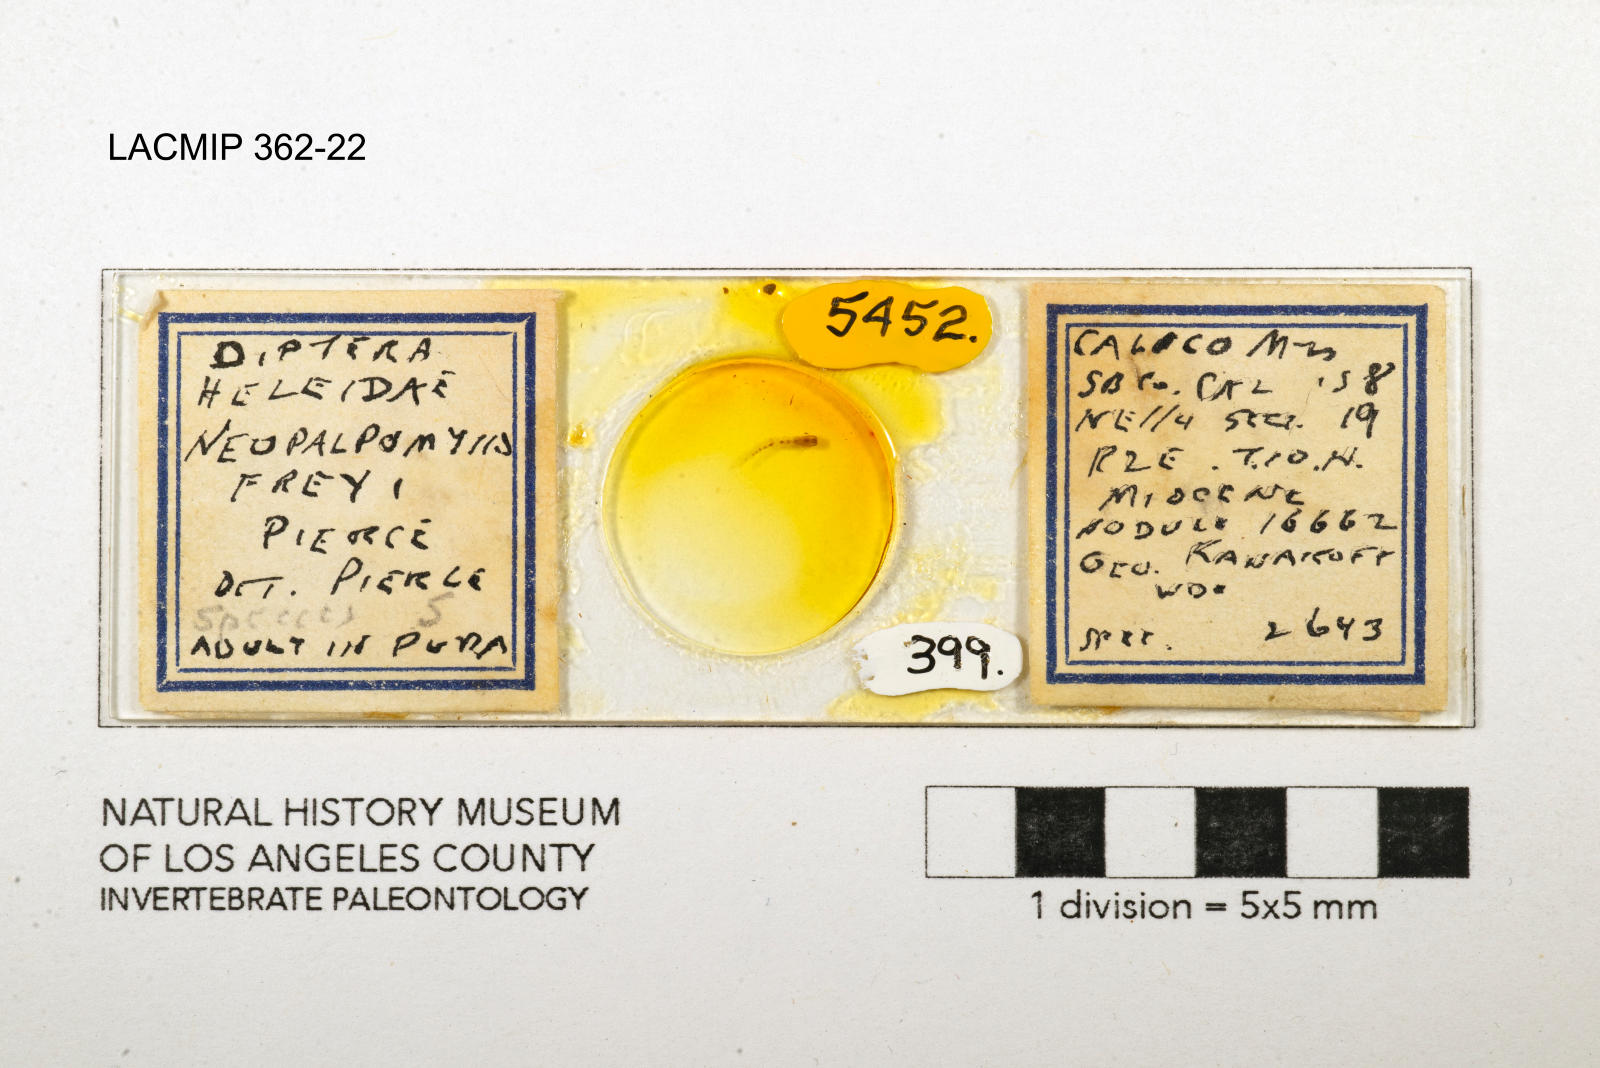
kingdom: Animalia
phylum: Arthropoda
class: Insecta
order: Diptera
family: Ceratopogonidae
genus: Palpomyia
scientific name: Palpomyia freyi
